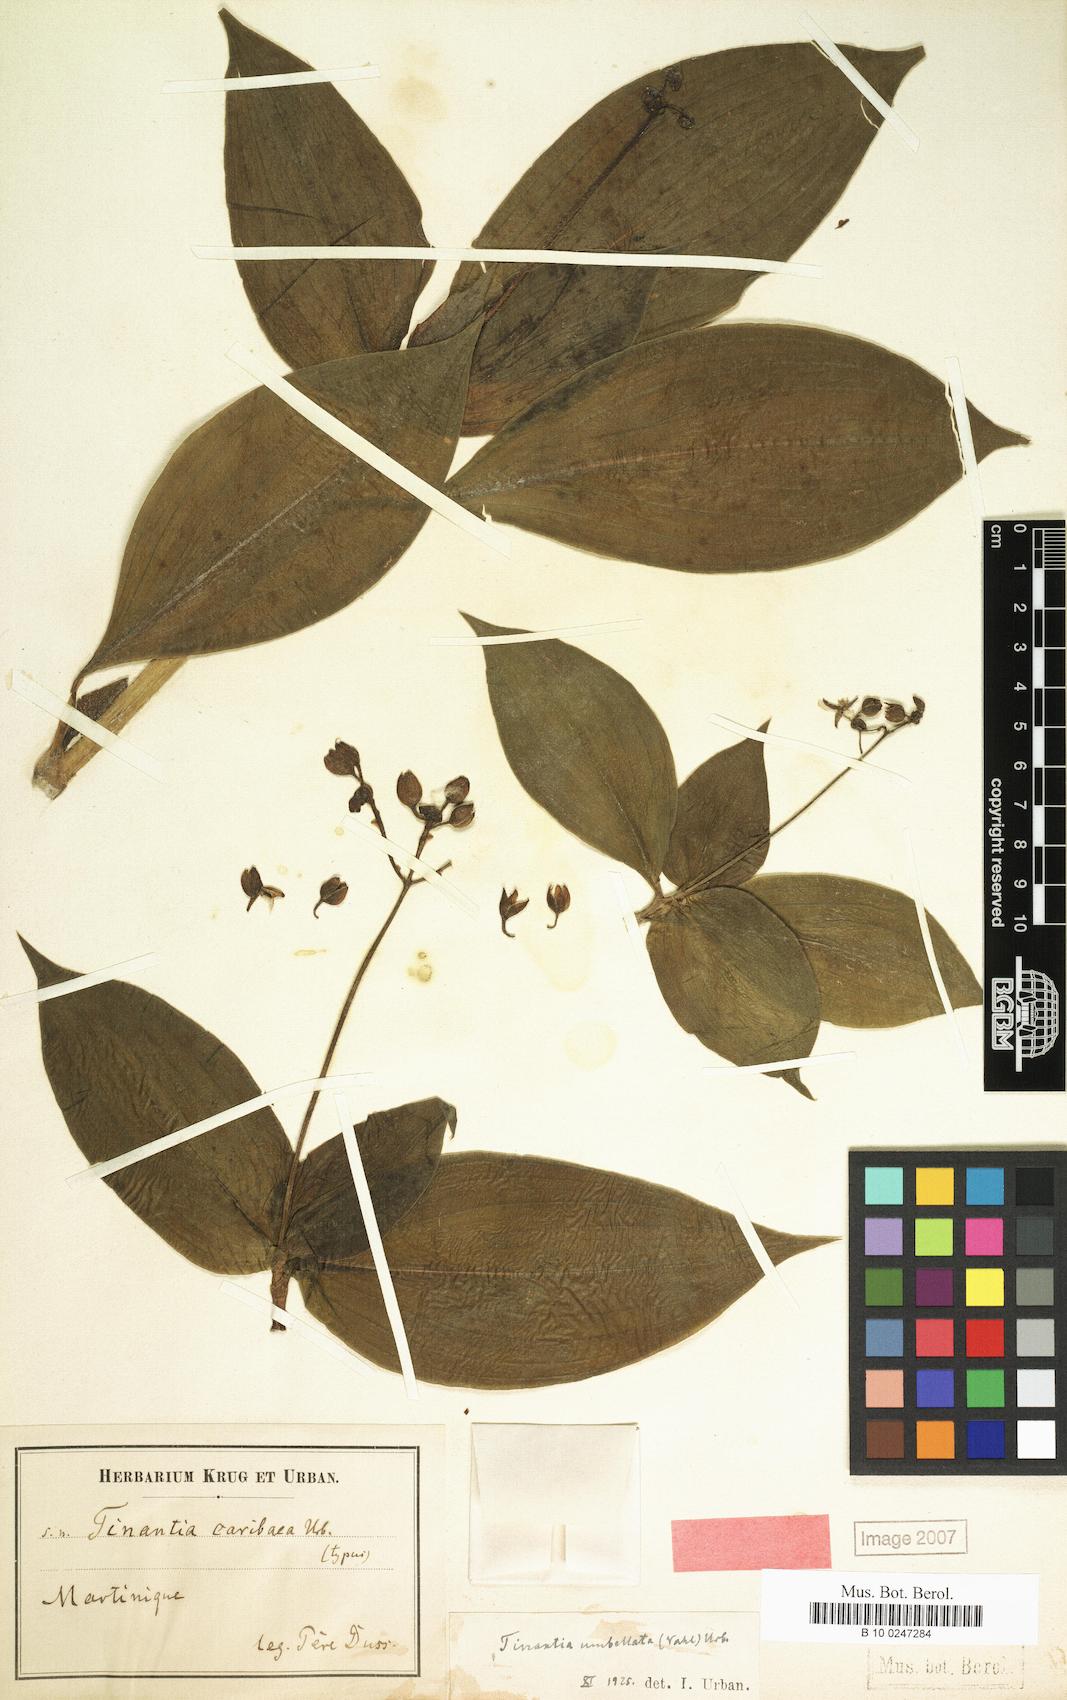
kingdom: Plantae
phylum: Tracheophyta
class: Liliopsida
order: Commelinales
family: Commelinaceae
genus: Tinantia
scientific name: Tinantia umbellata
